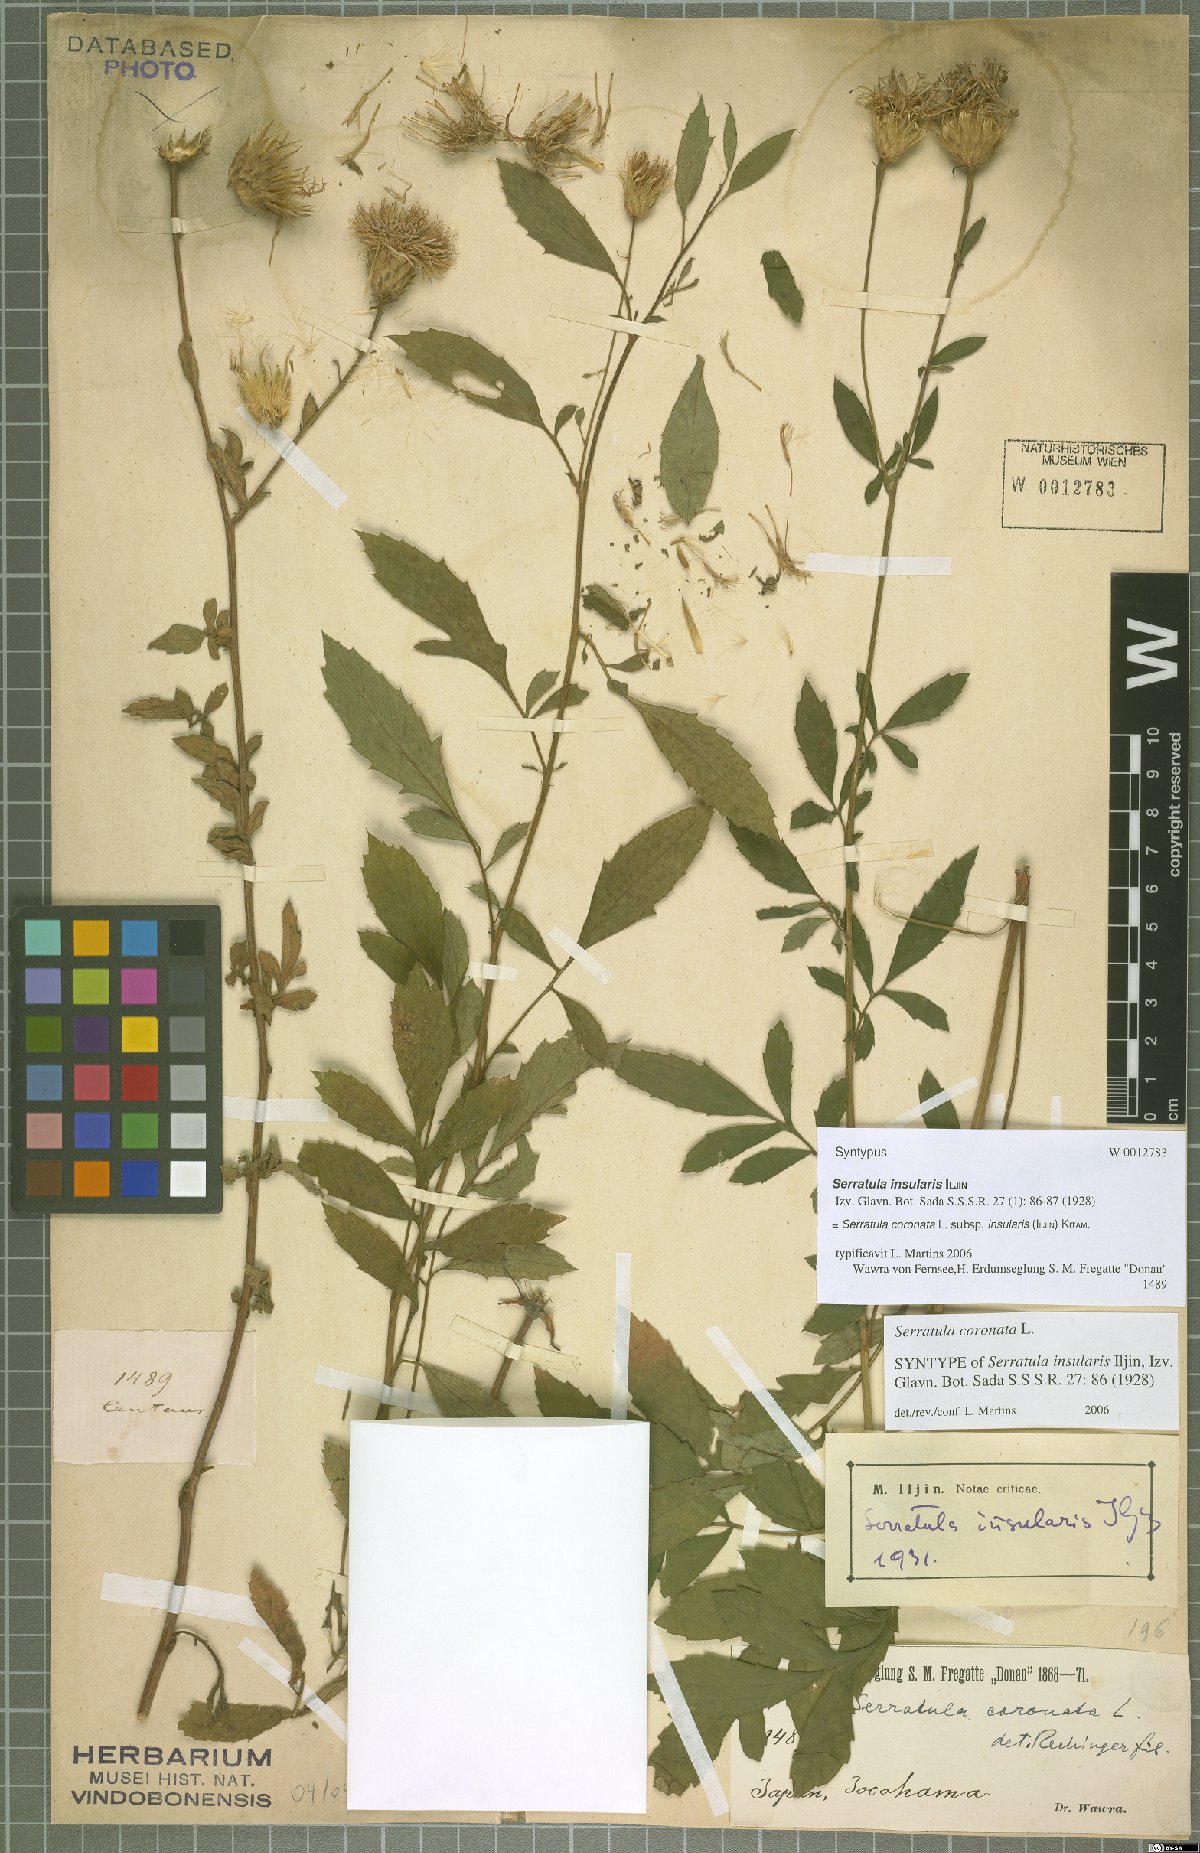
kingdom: Plantae
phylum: Tracheophyta
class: Magnoliopsida
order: Asterales
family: Asteraceae
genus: Serratula
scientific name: Serratula coronata
